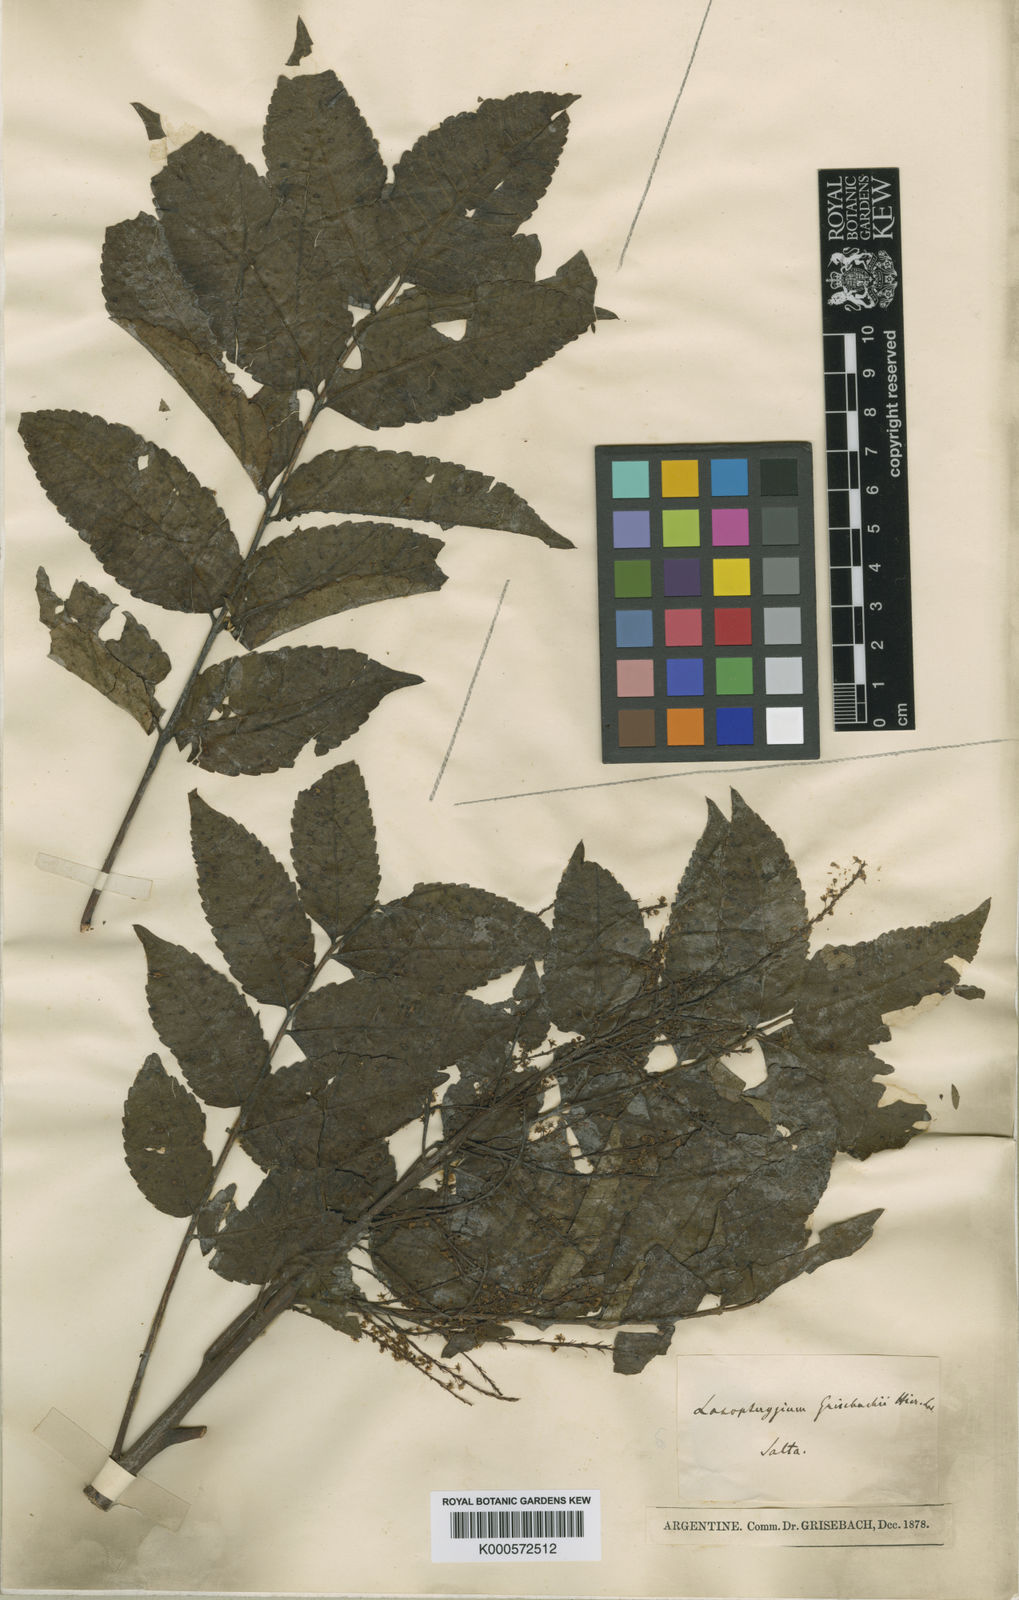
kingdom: Plantae
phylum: Tracheophyta
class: Magnoliopsida
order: Sapindales
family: Anacardiaceae
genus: Loxopterygium
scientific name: Loxopterygium grisebachii
